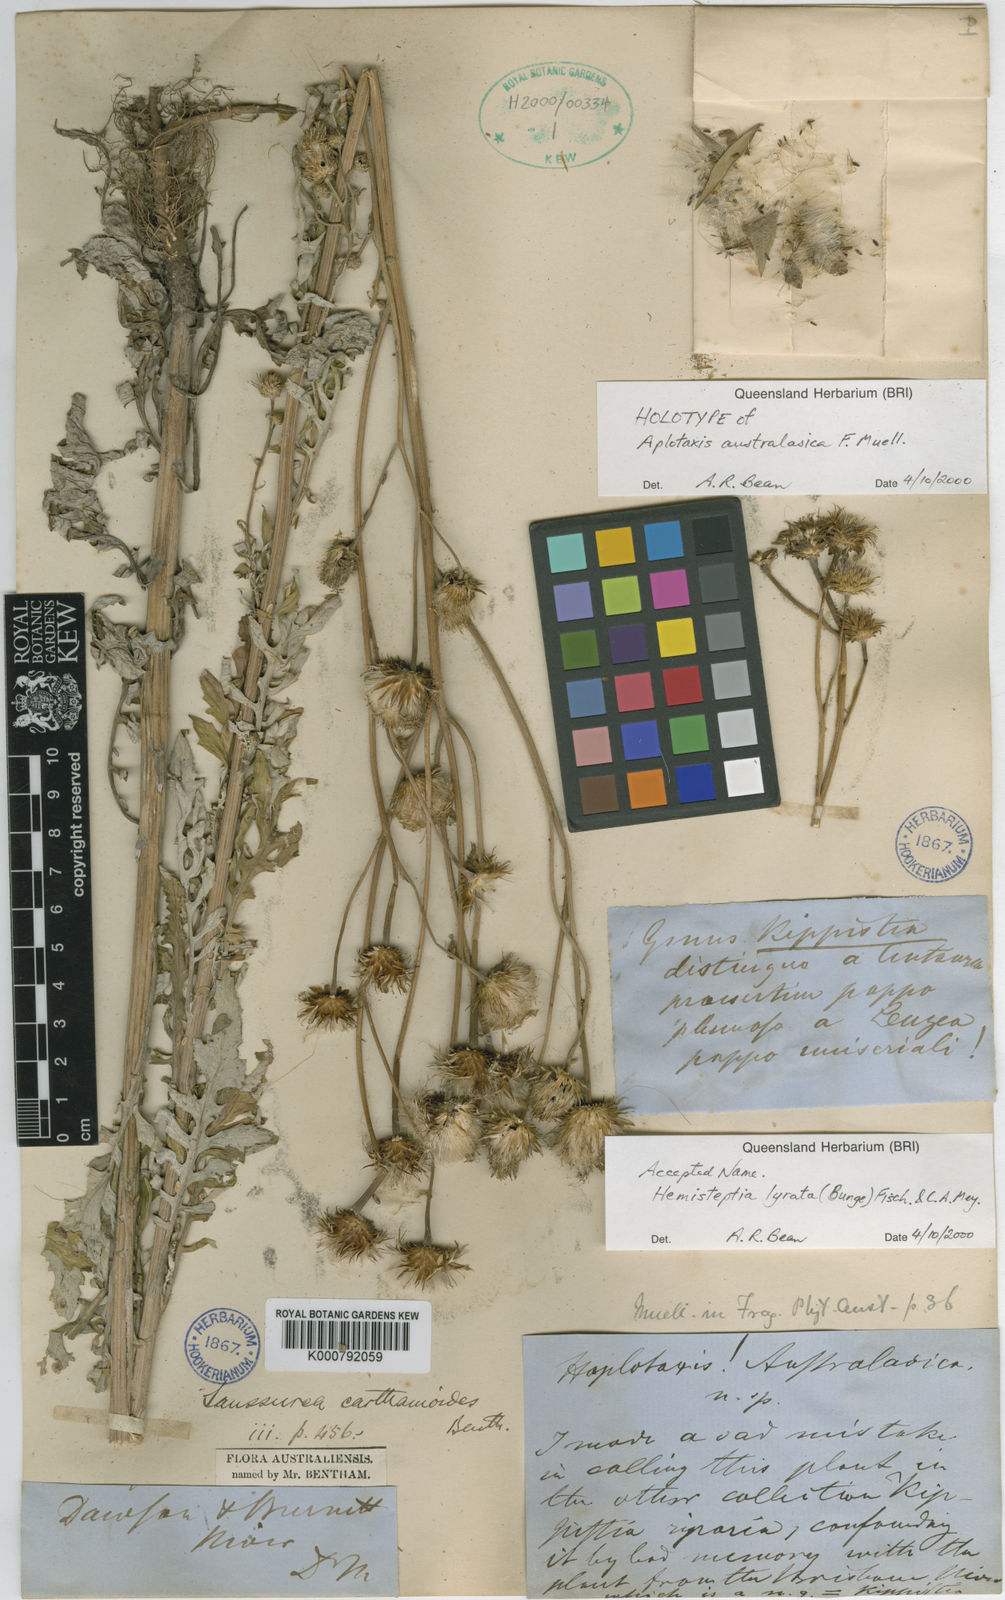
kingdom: Plantae
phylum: Tracheophyta
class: Magnoliopsida
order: Asterales
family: Asteraceae
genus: Saussurea
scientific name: Saussurea lyrata
